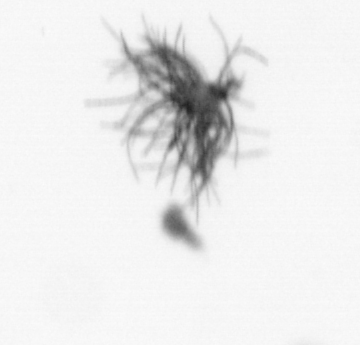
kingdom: Bacteria
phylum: Cyanobacteria
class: Cyanobacteriia
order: Cyanobacteriales
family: Microcoleaceae
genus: Trichodesmium
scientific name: Trichodesmium
